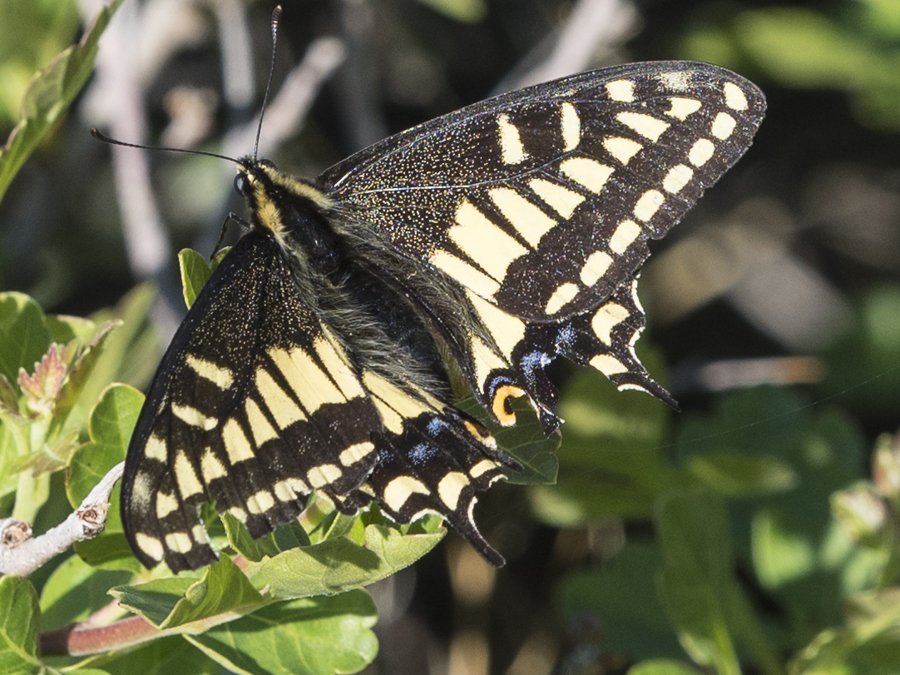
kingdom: Animalia
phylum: Arthropoda
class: Insecta
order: Lepidoptera
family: Papilionidae
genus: Papilio
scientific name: Papilio zelicaon
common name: Anise Swallowtail
